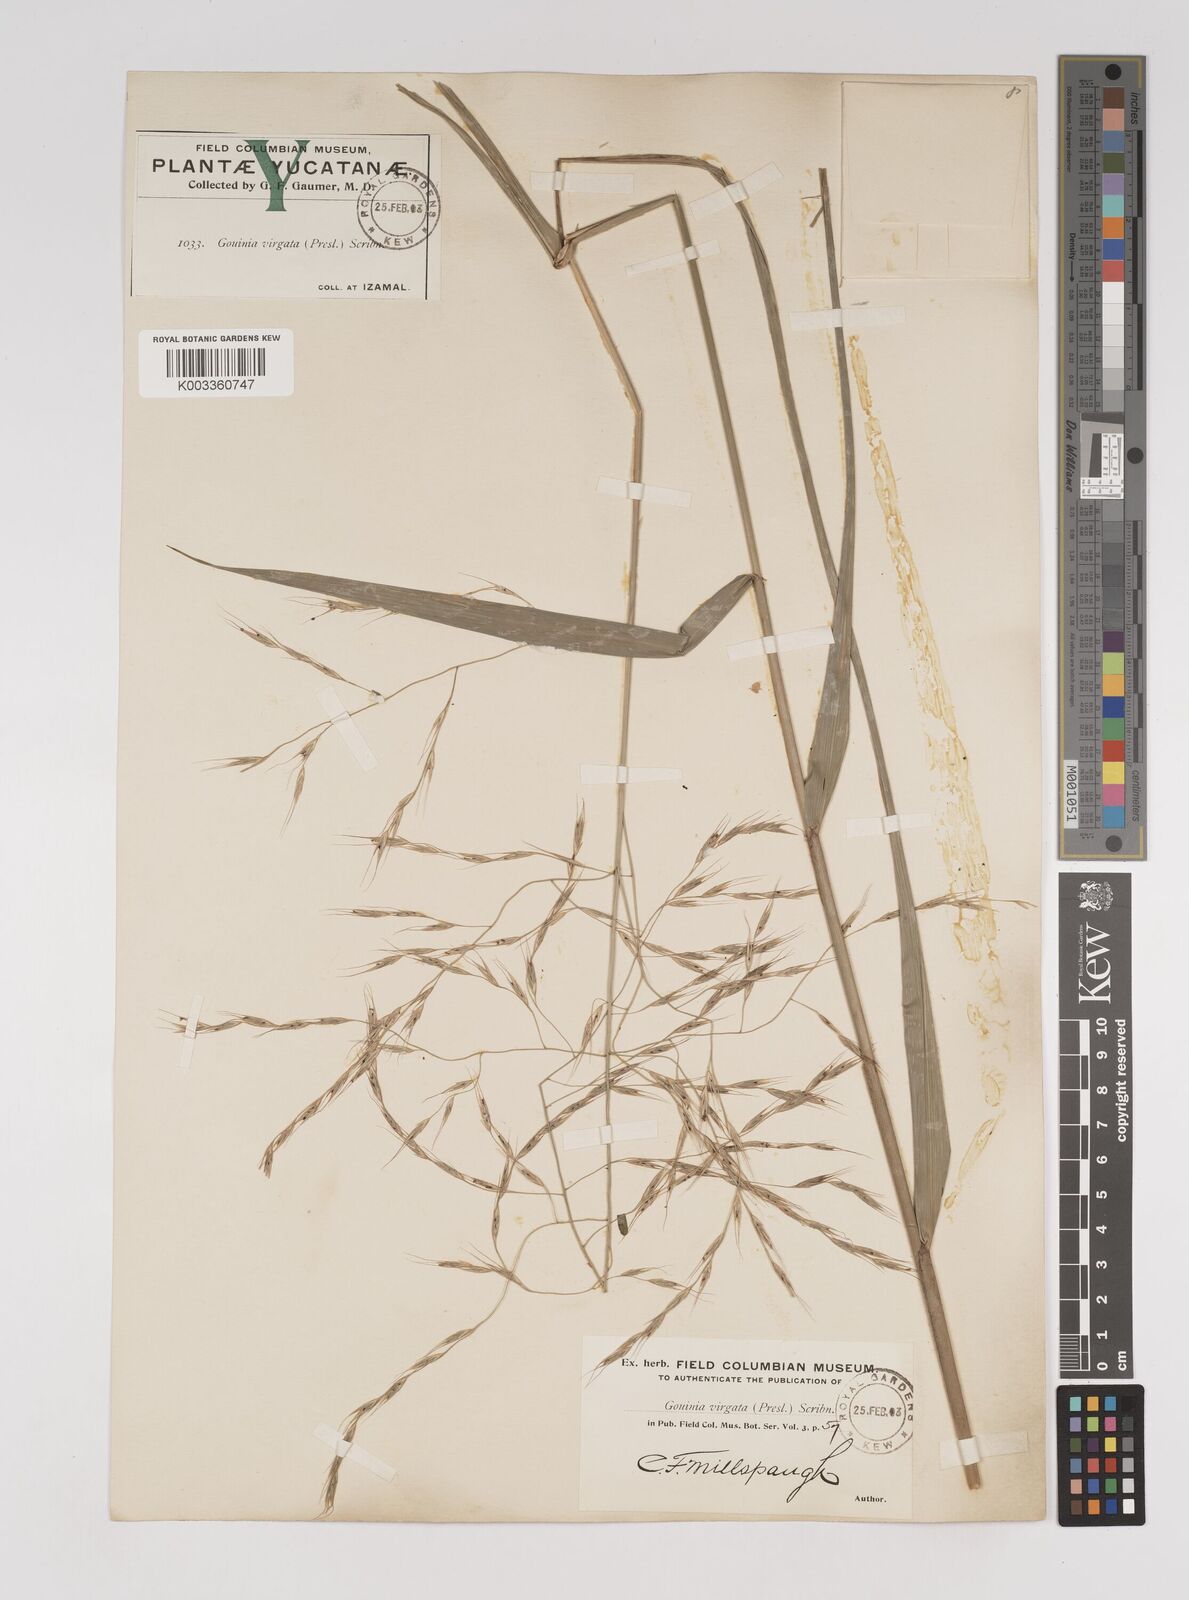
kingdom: Plantae
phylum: Tracheophyta
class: Liliopsida
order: Poales
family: Poaceae
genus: Gouinia
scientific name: Gouinia virgata
